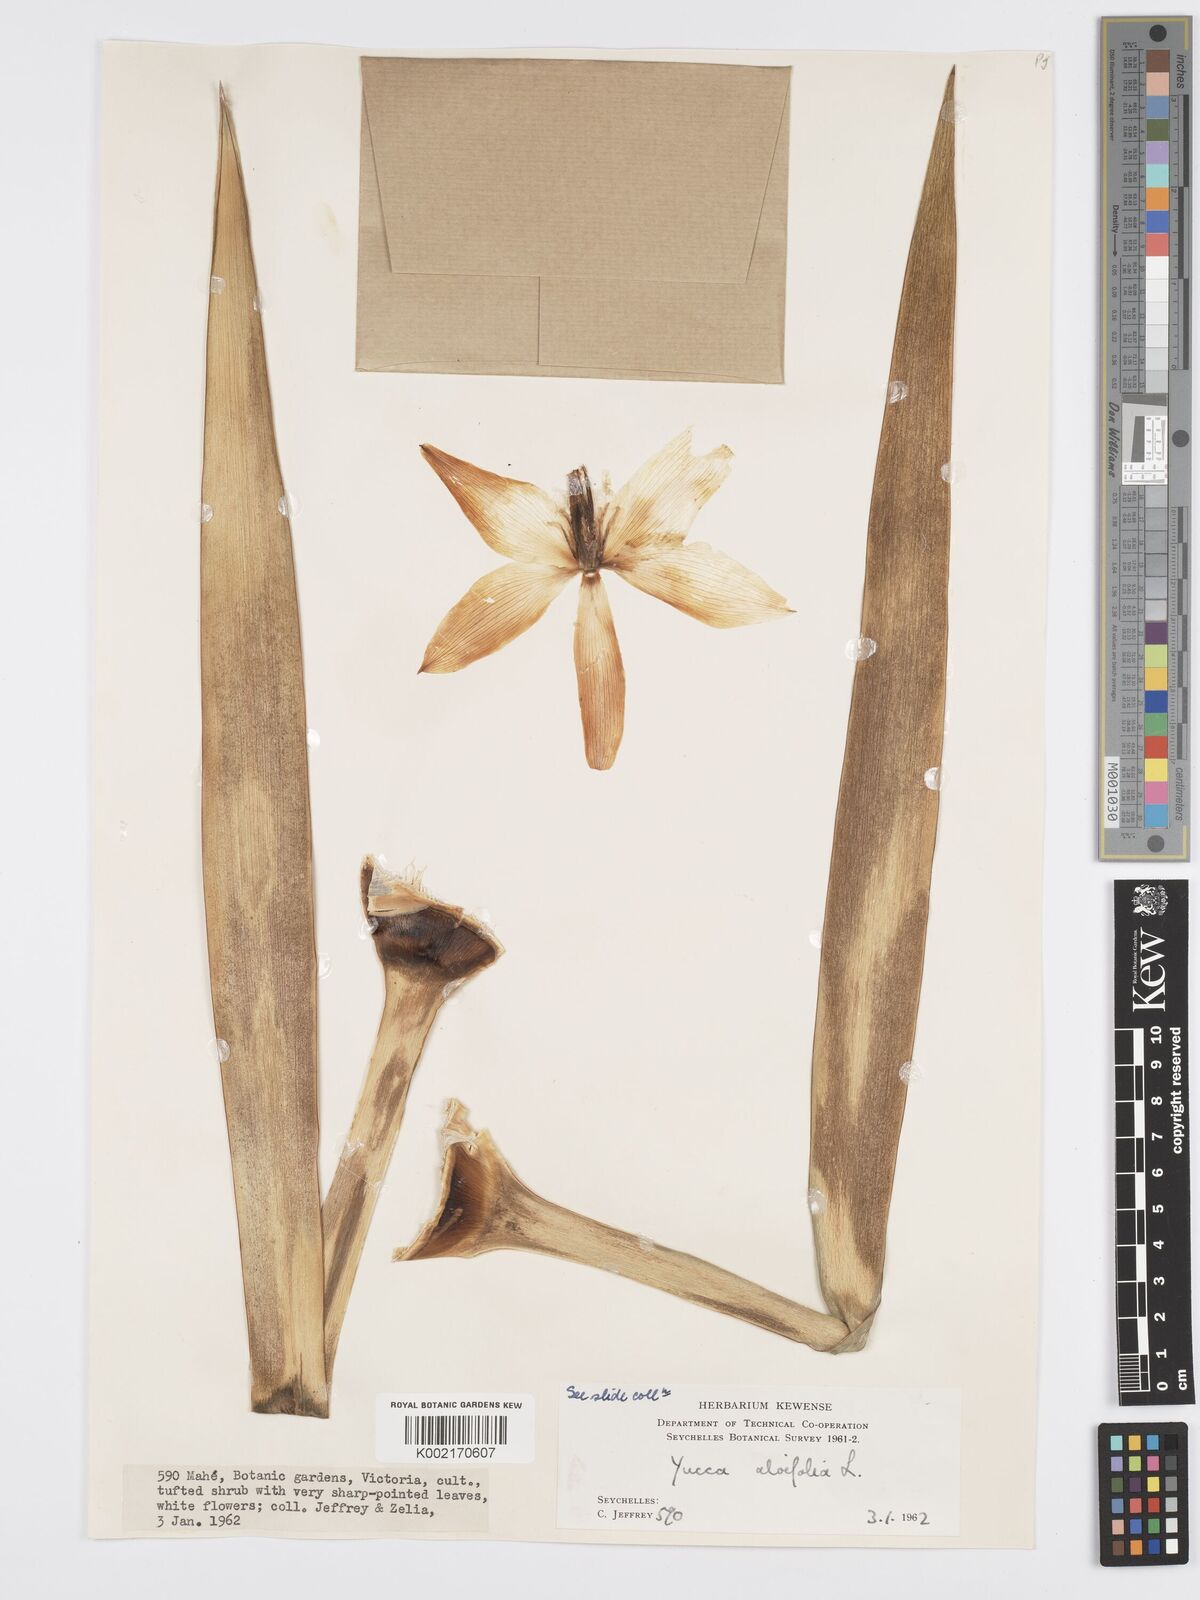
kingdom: Plantae
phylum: Tracheophyta
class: Liliopsida
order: Asparagales
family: Asparagaceae
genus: Yucca
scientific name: Yucca aloifolia
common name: Aloe yucca
